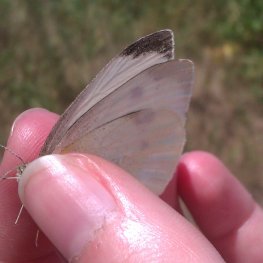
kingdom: Animalia
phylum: Arthropoda
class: Insecta
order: Lepidoptera
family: Pieridae
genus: Pieris
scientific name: Pieris rapae
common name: Cabbage White
